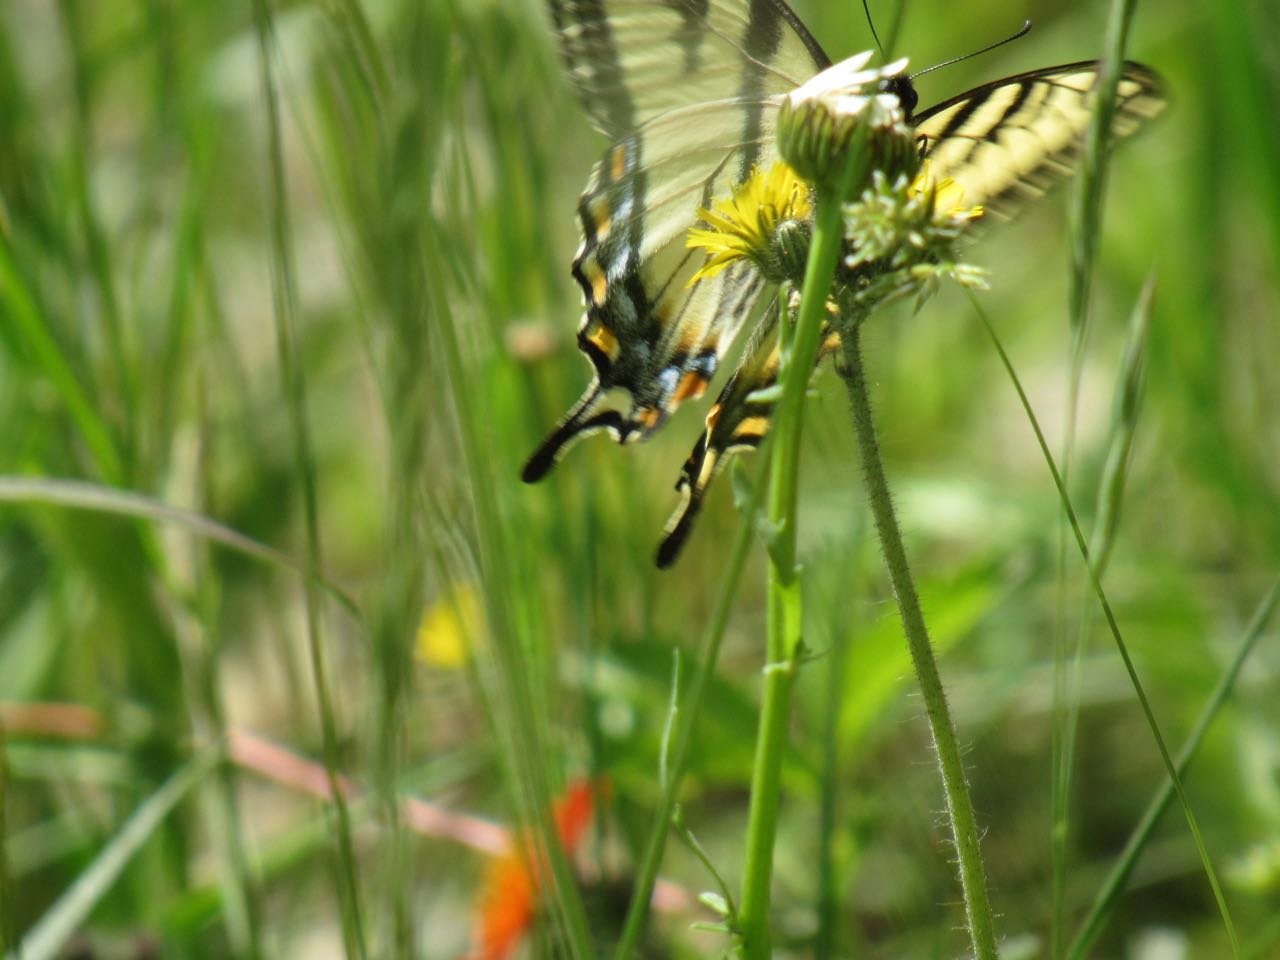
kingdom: Animalia
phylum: Arthropoda
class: Insecta
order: Lepidoptera
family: Papilionidae
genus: Pterourus
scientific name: Pterourus canadensis
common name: Canadian Tiger Swallowtail
